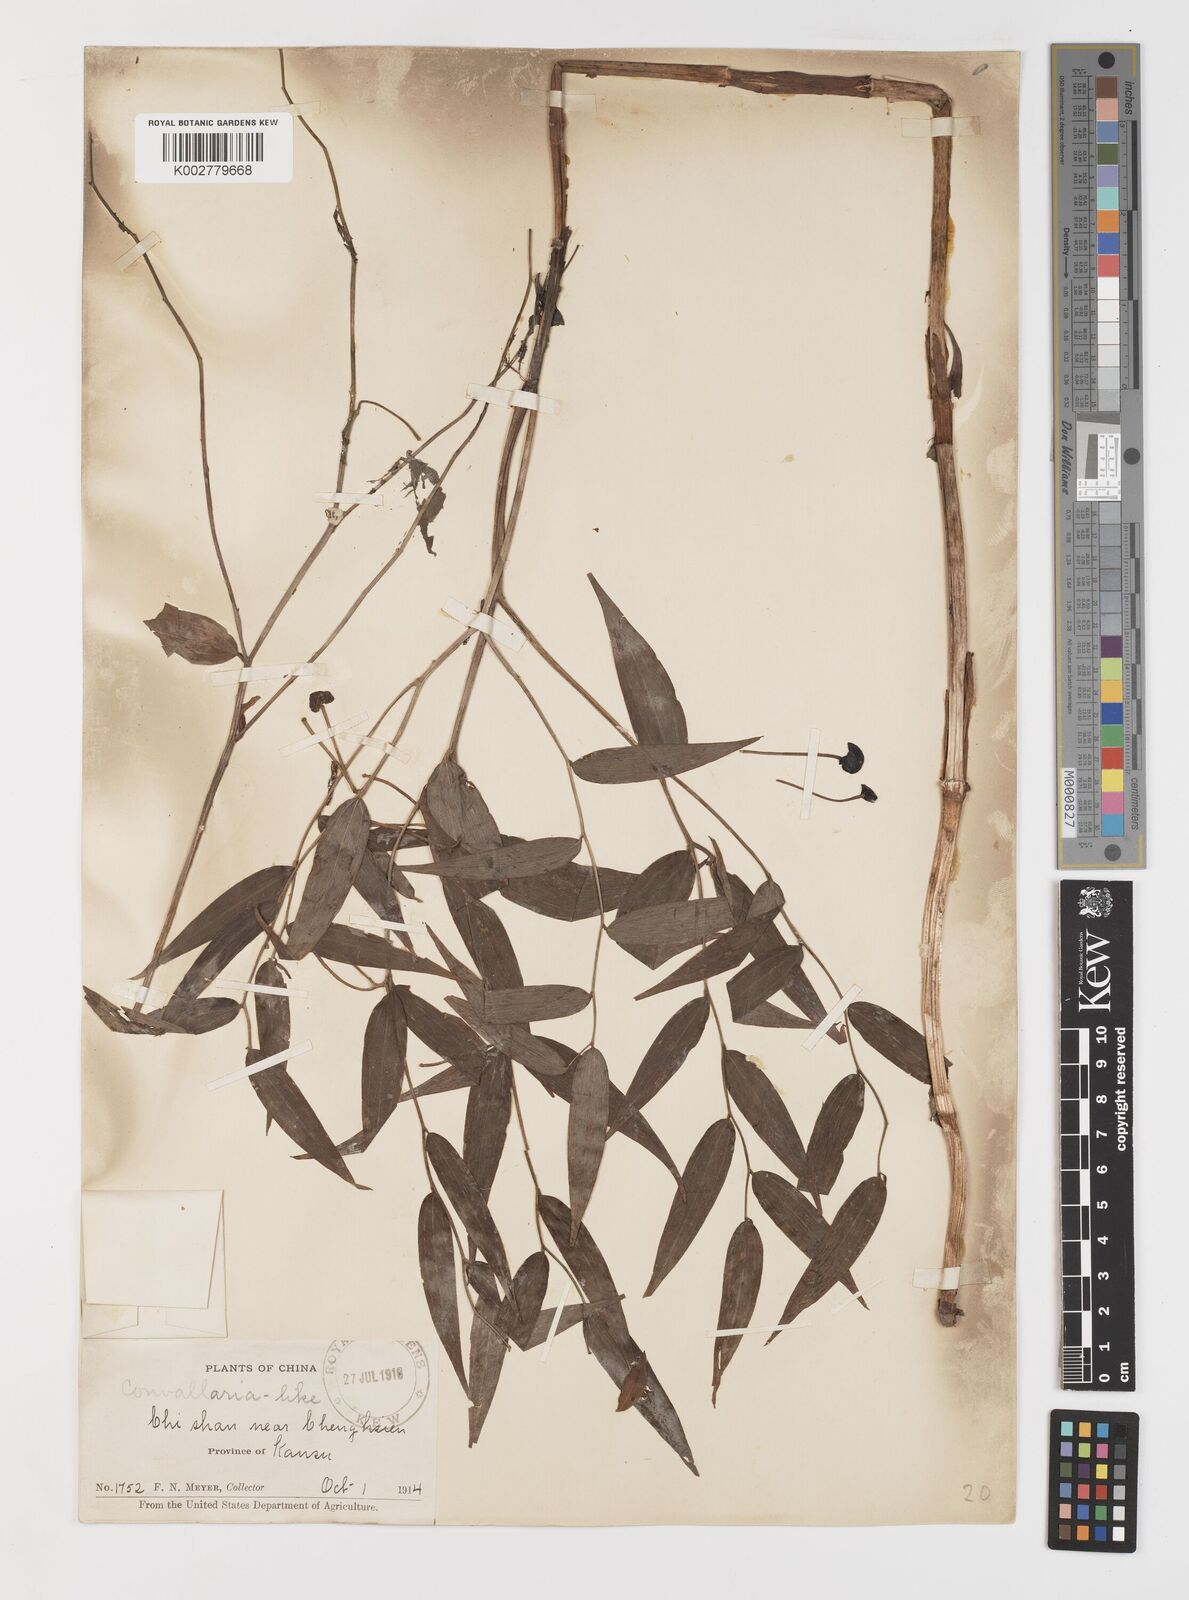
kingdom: Plantae
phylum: Tracheophyta
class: Liliopsida
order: Liliales
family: Colchicaceae
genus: Disporum
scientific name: Disporum cantoniense
